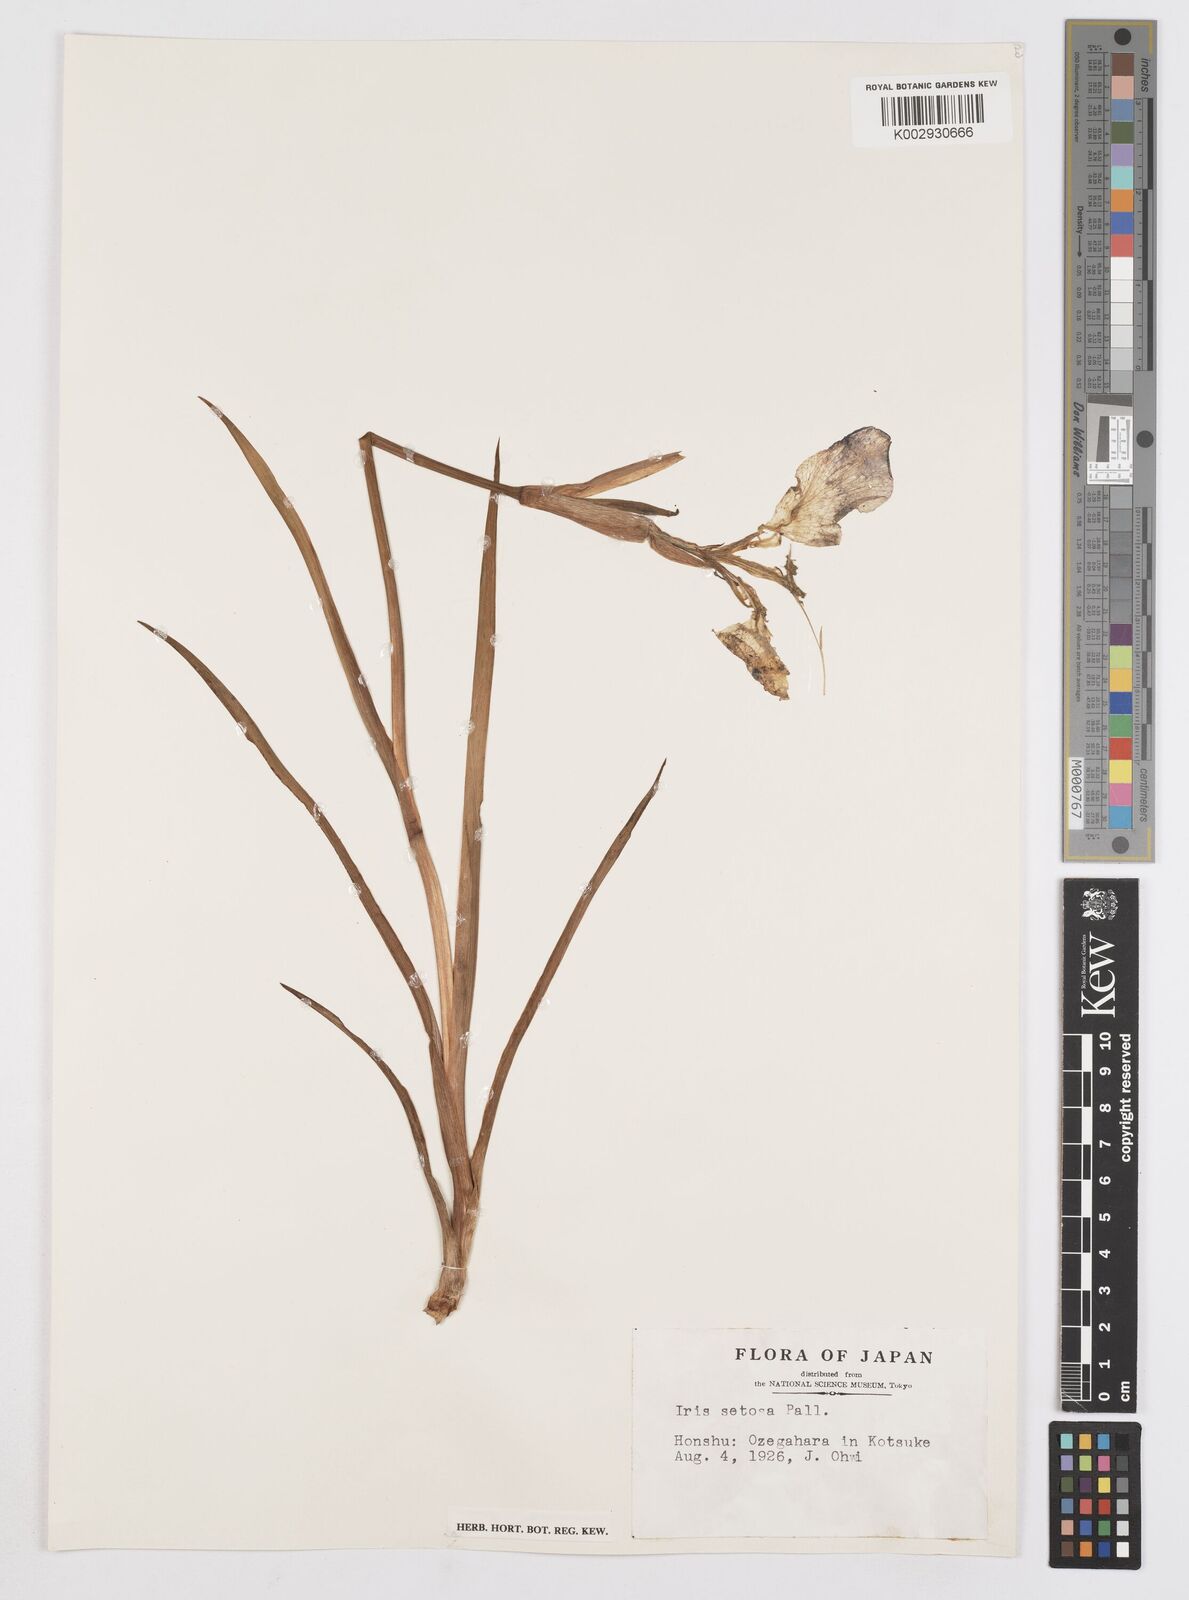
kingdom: Plantae
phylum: Tracheophyta
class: Liliopsida
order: Asparagales
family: Iridaceae
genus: Iris
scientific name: Iris setosa
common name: Arctic blue flag
